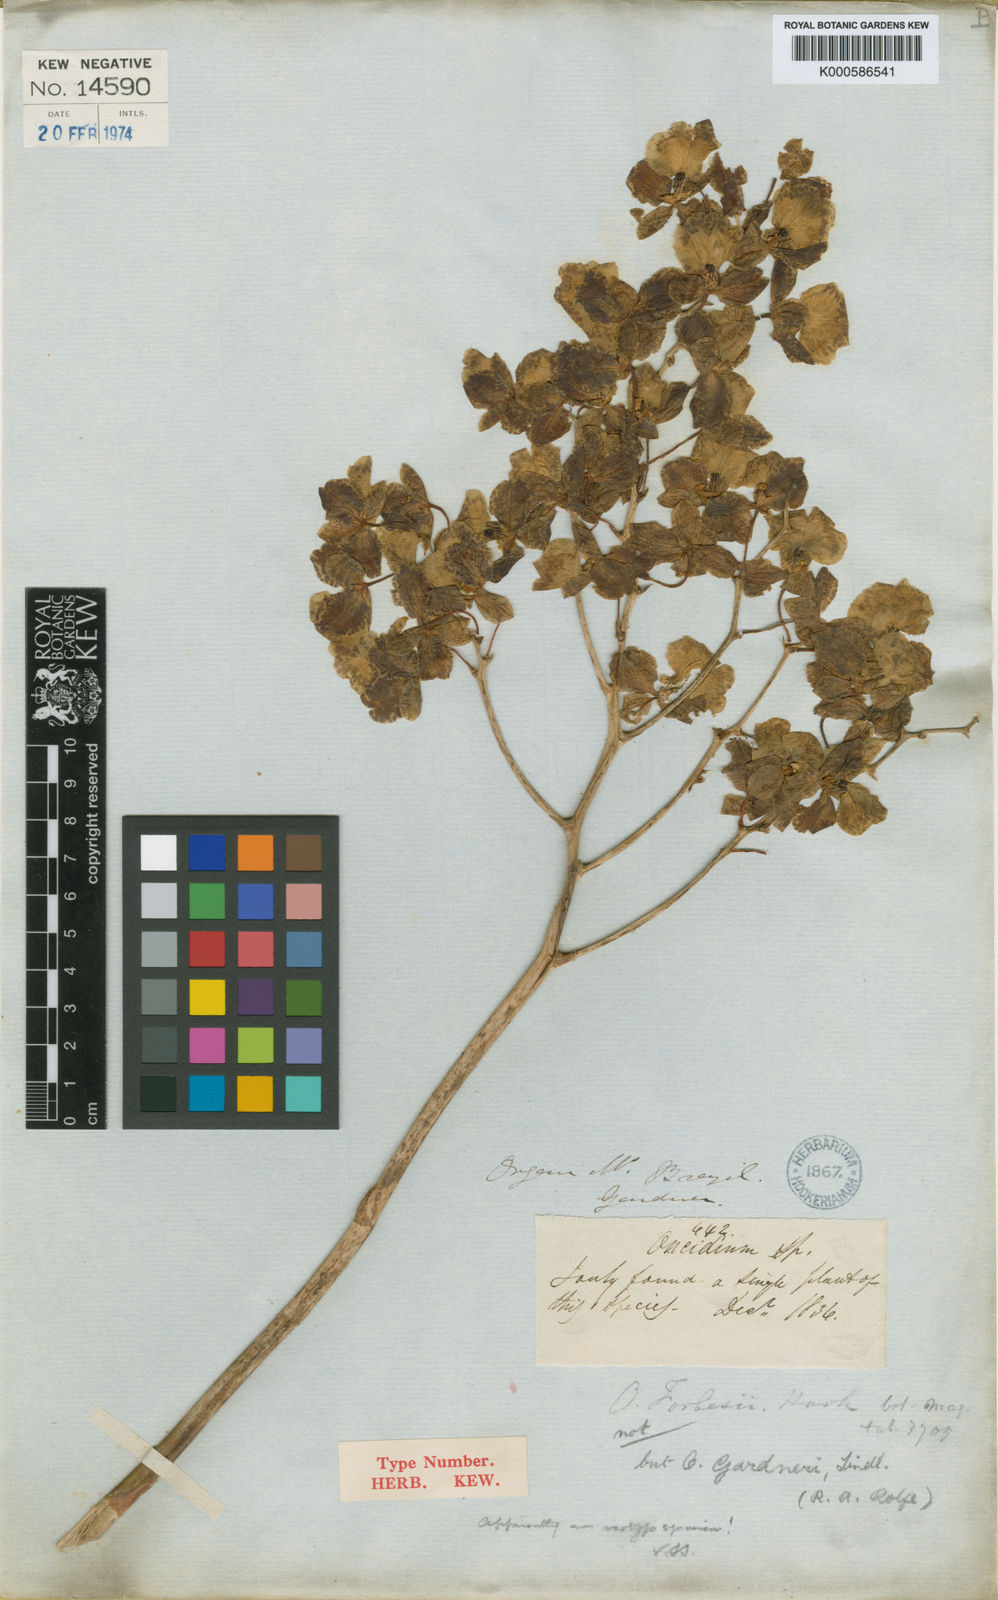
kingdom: Plantae
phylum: Tracheophyta
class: Liliopsida
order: Asparagales
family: Orchidaceae
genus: Gomesa
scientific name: Gomesa gardneri
